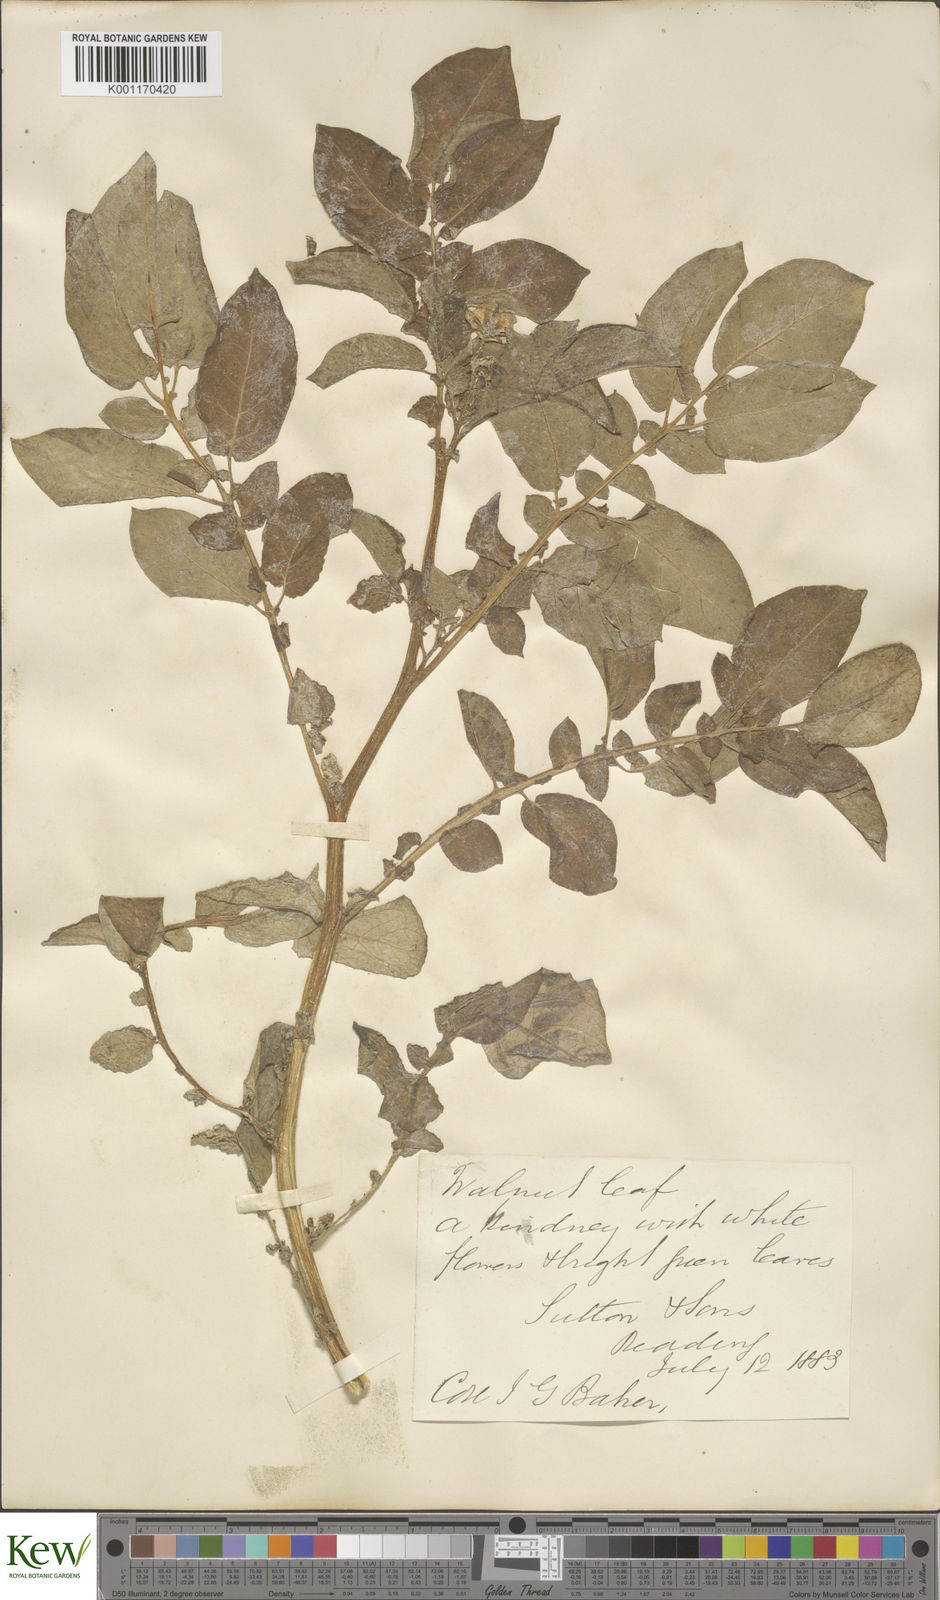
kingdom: Plantae
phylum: Tracheophyta
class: Magnoliopsida
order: Solanales
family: Solanaceae
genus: Solanum
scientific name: Solanum tuberosum
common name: Potato
